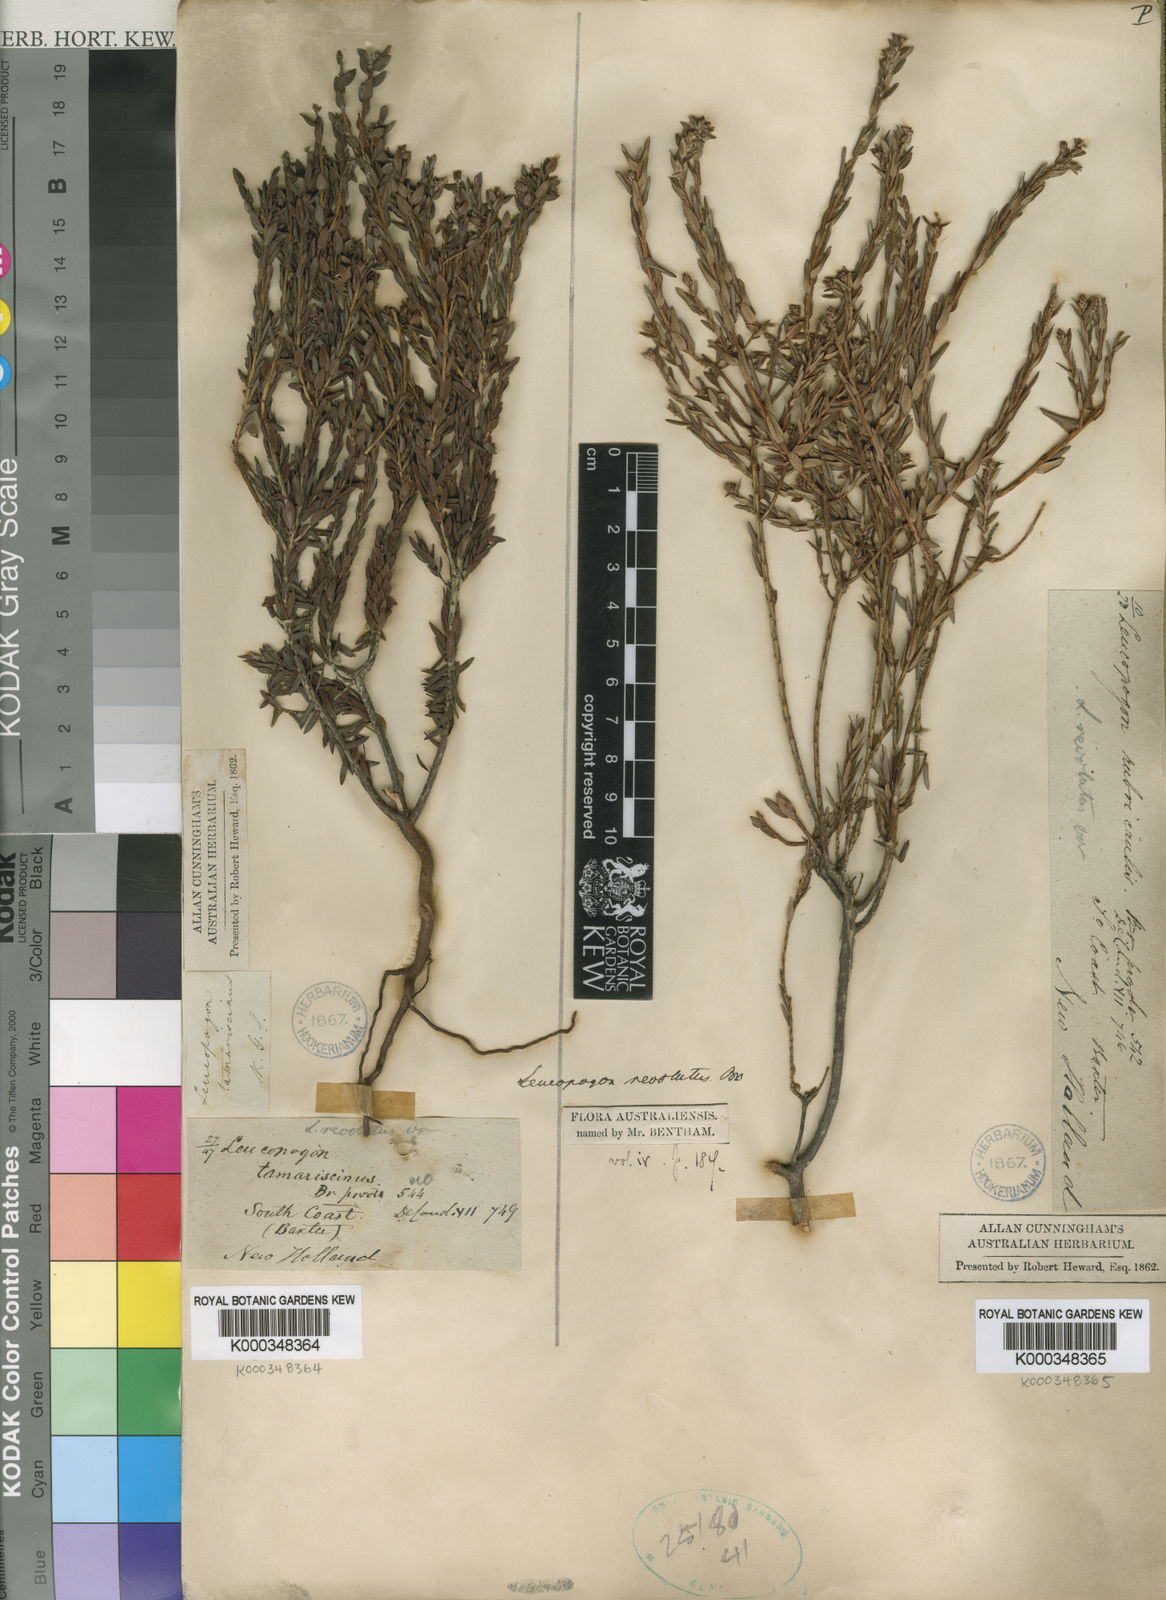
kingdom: Plantae
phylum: Tracheophyta
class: Magnoliopsida
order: Ericales
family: Ericaceae
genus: Leucopogon
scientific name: Leucopogon obovatus
